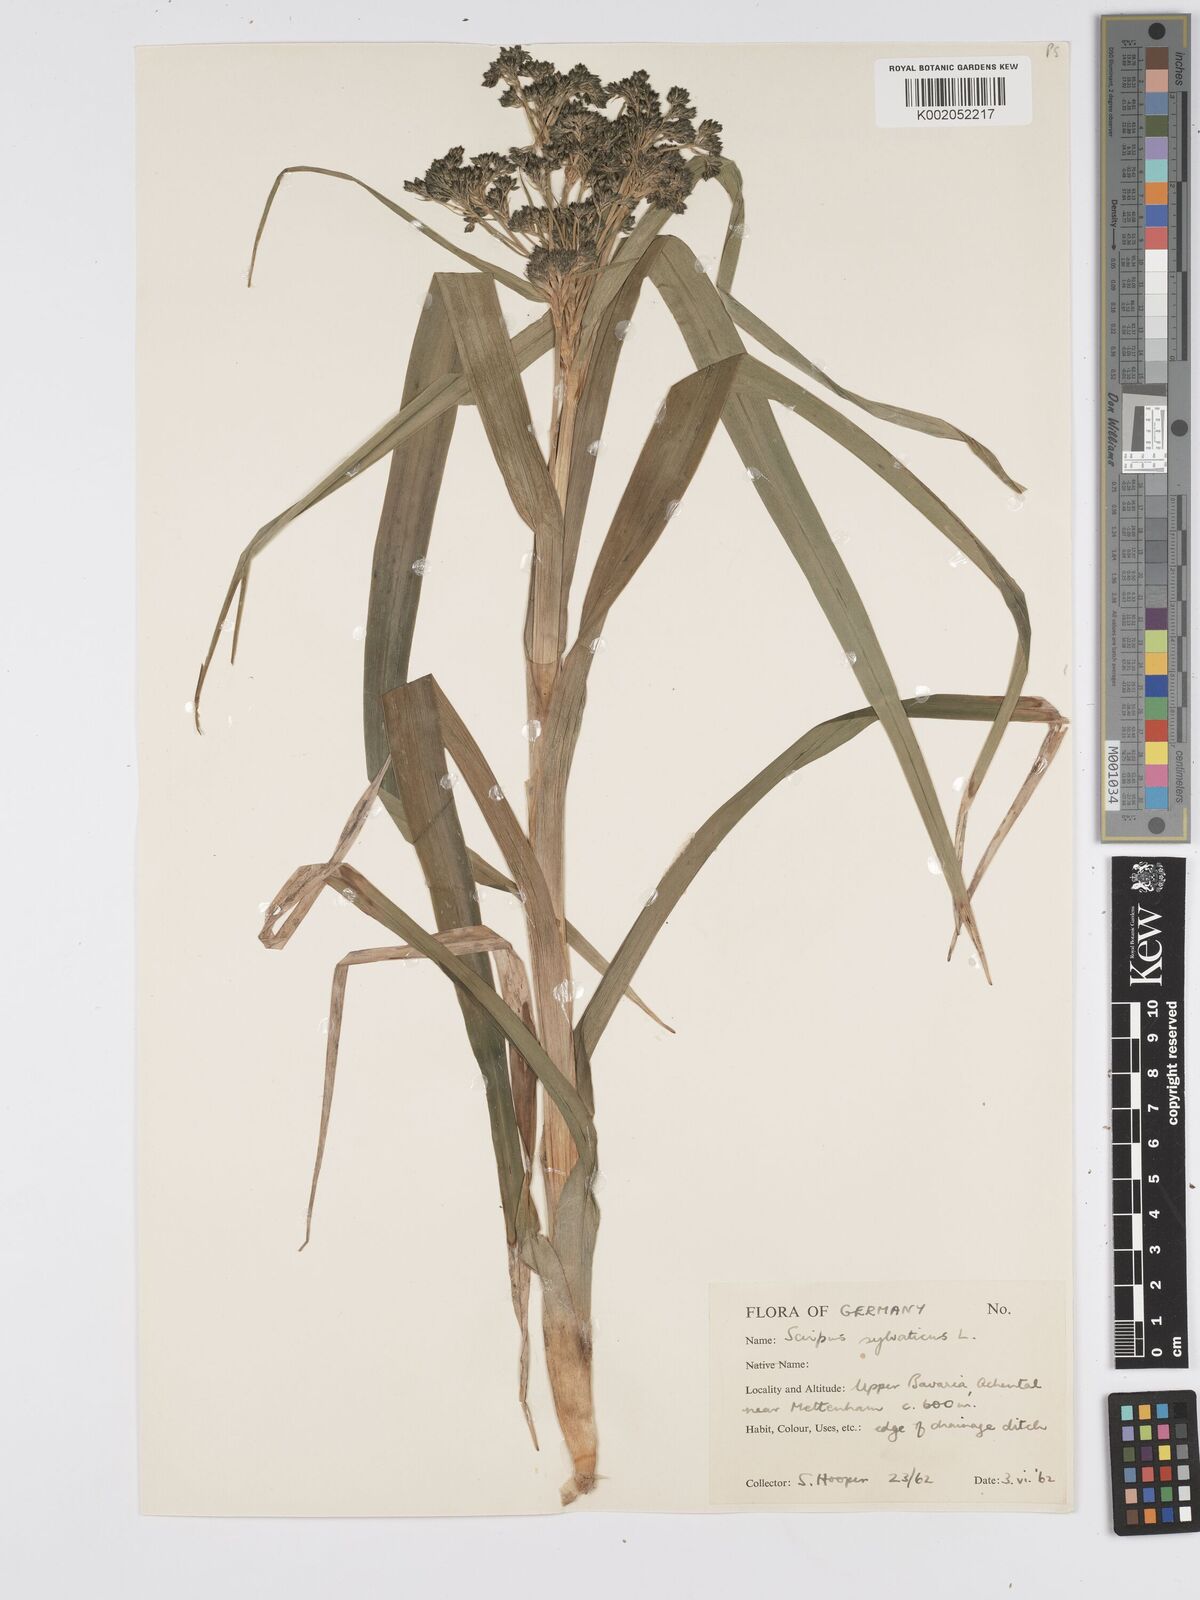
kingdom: Plantae
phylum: Tracheophyta
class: Liliopsida
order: Poales
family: Cyperaceae
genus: Scirpus
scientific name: Scirpus sylvaticus
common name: Wood club-rush
